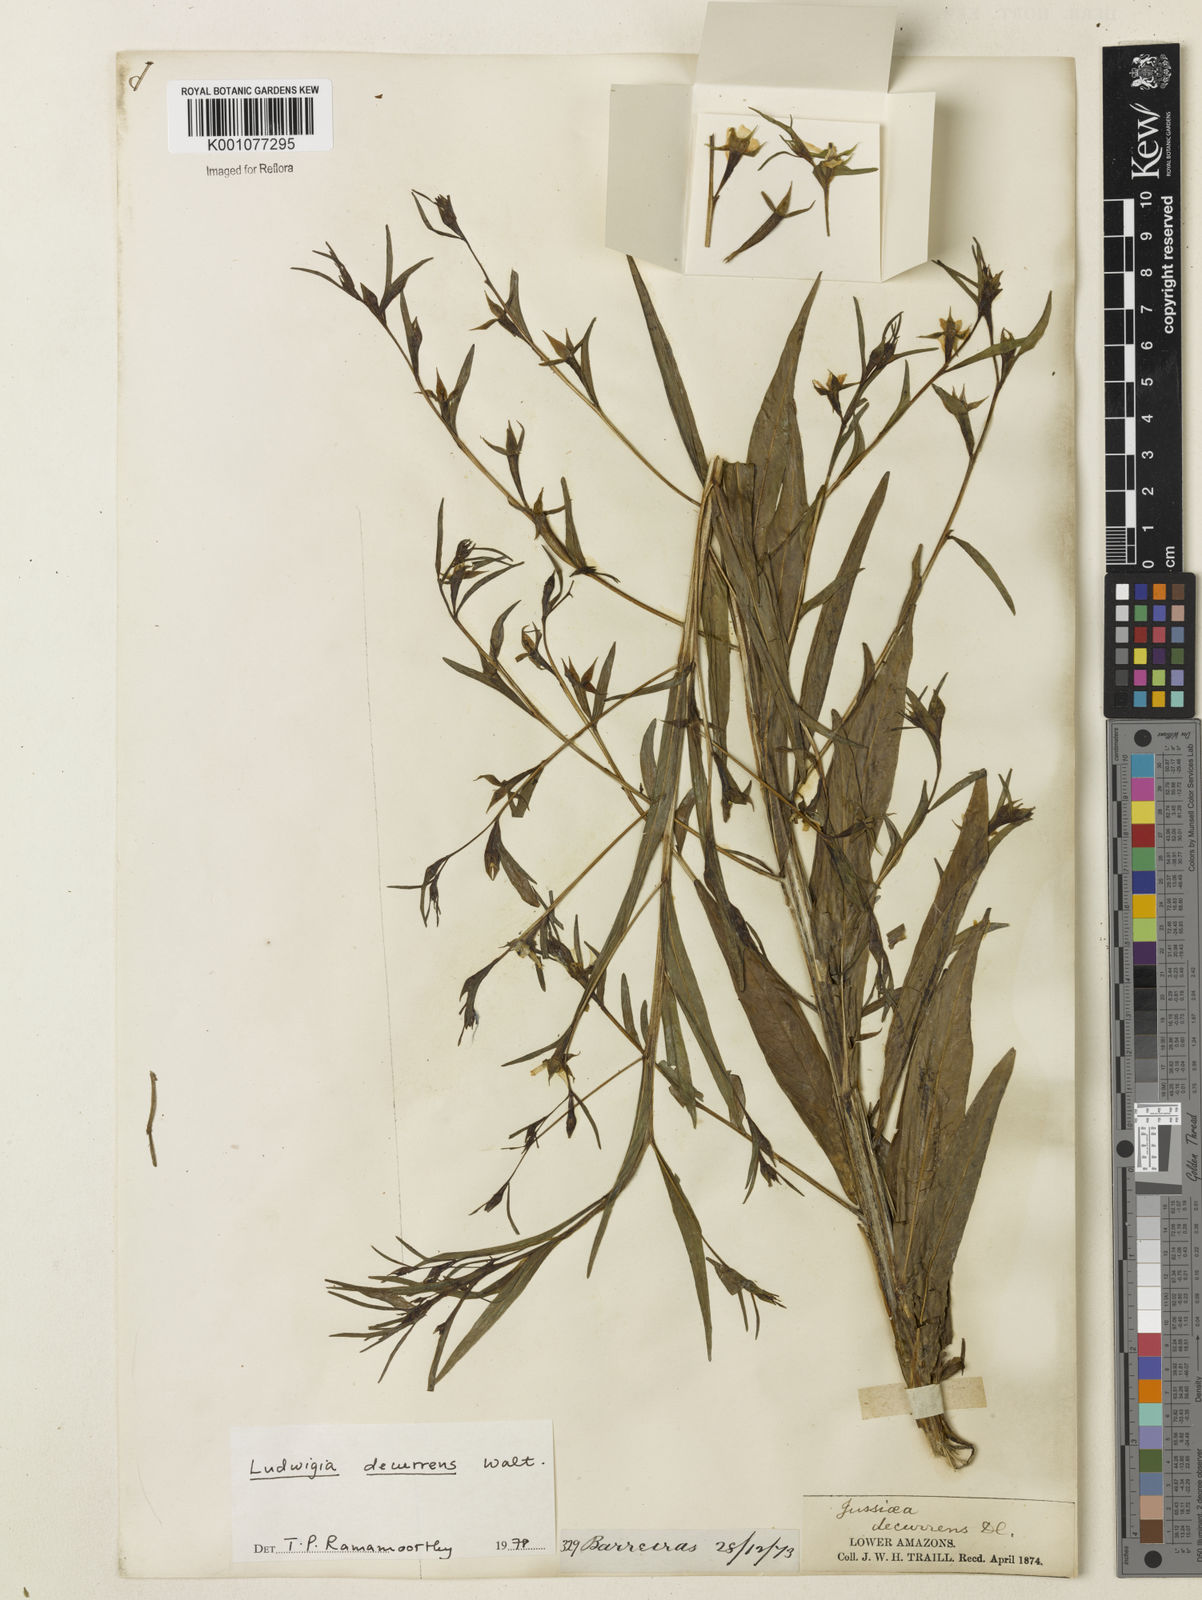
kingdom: Plantae
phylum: Tracheophyta
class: Magnoliopsida
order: Myrtales
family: Onagraceae
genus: Ludwigia
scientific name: Ludwigia decurrens
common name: Winged water-primrose
